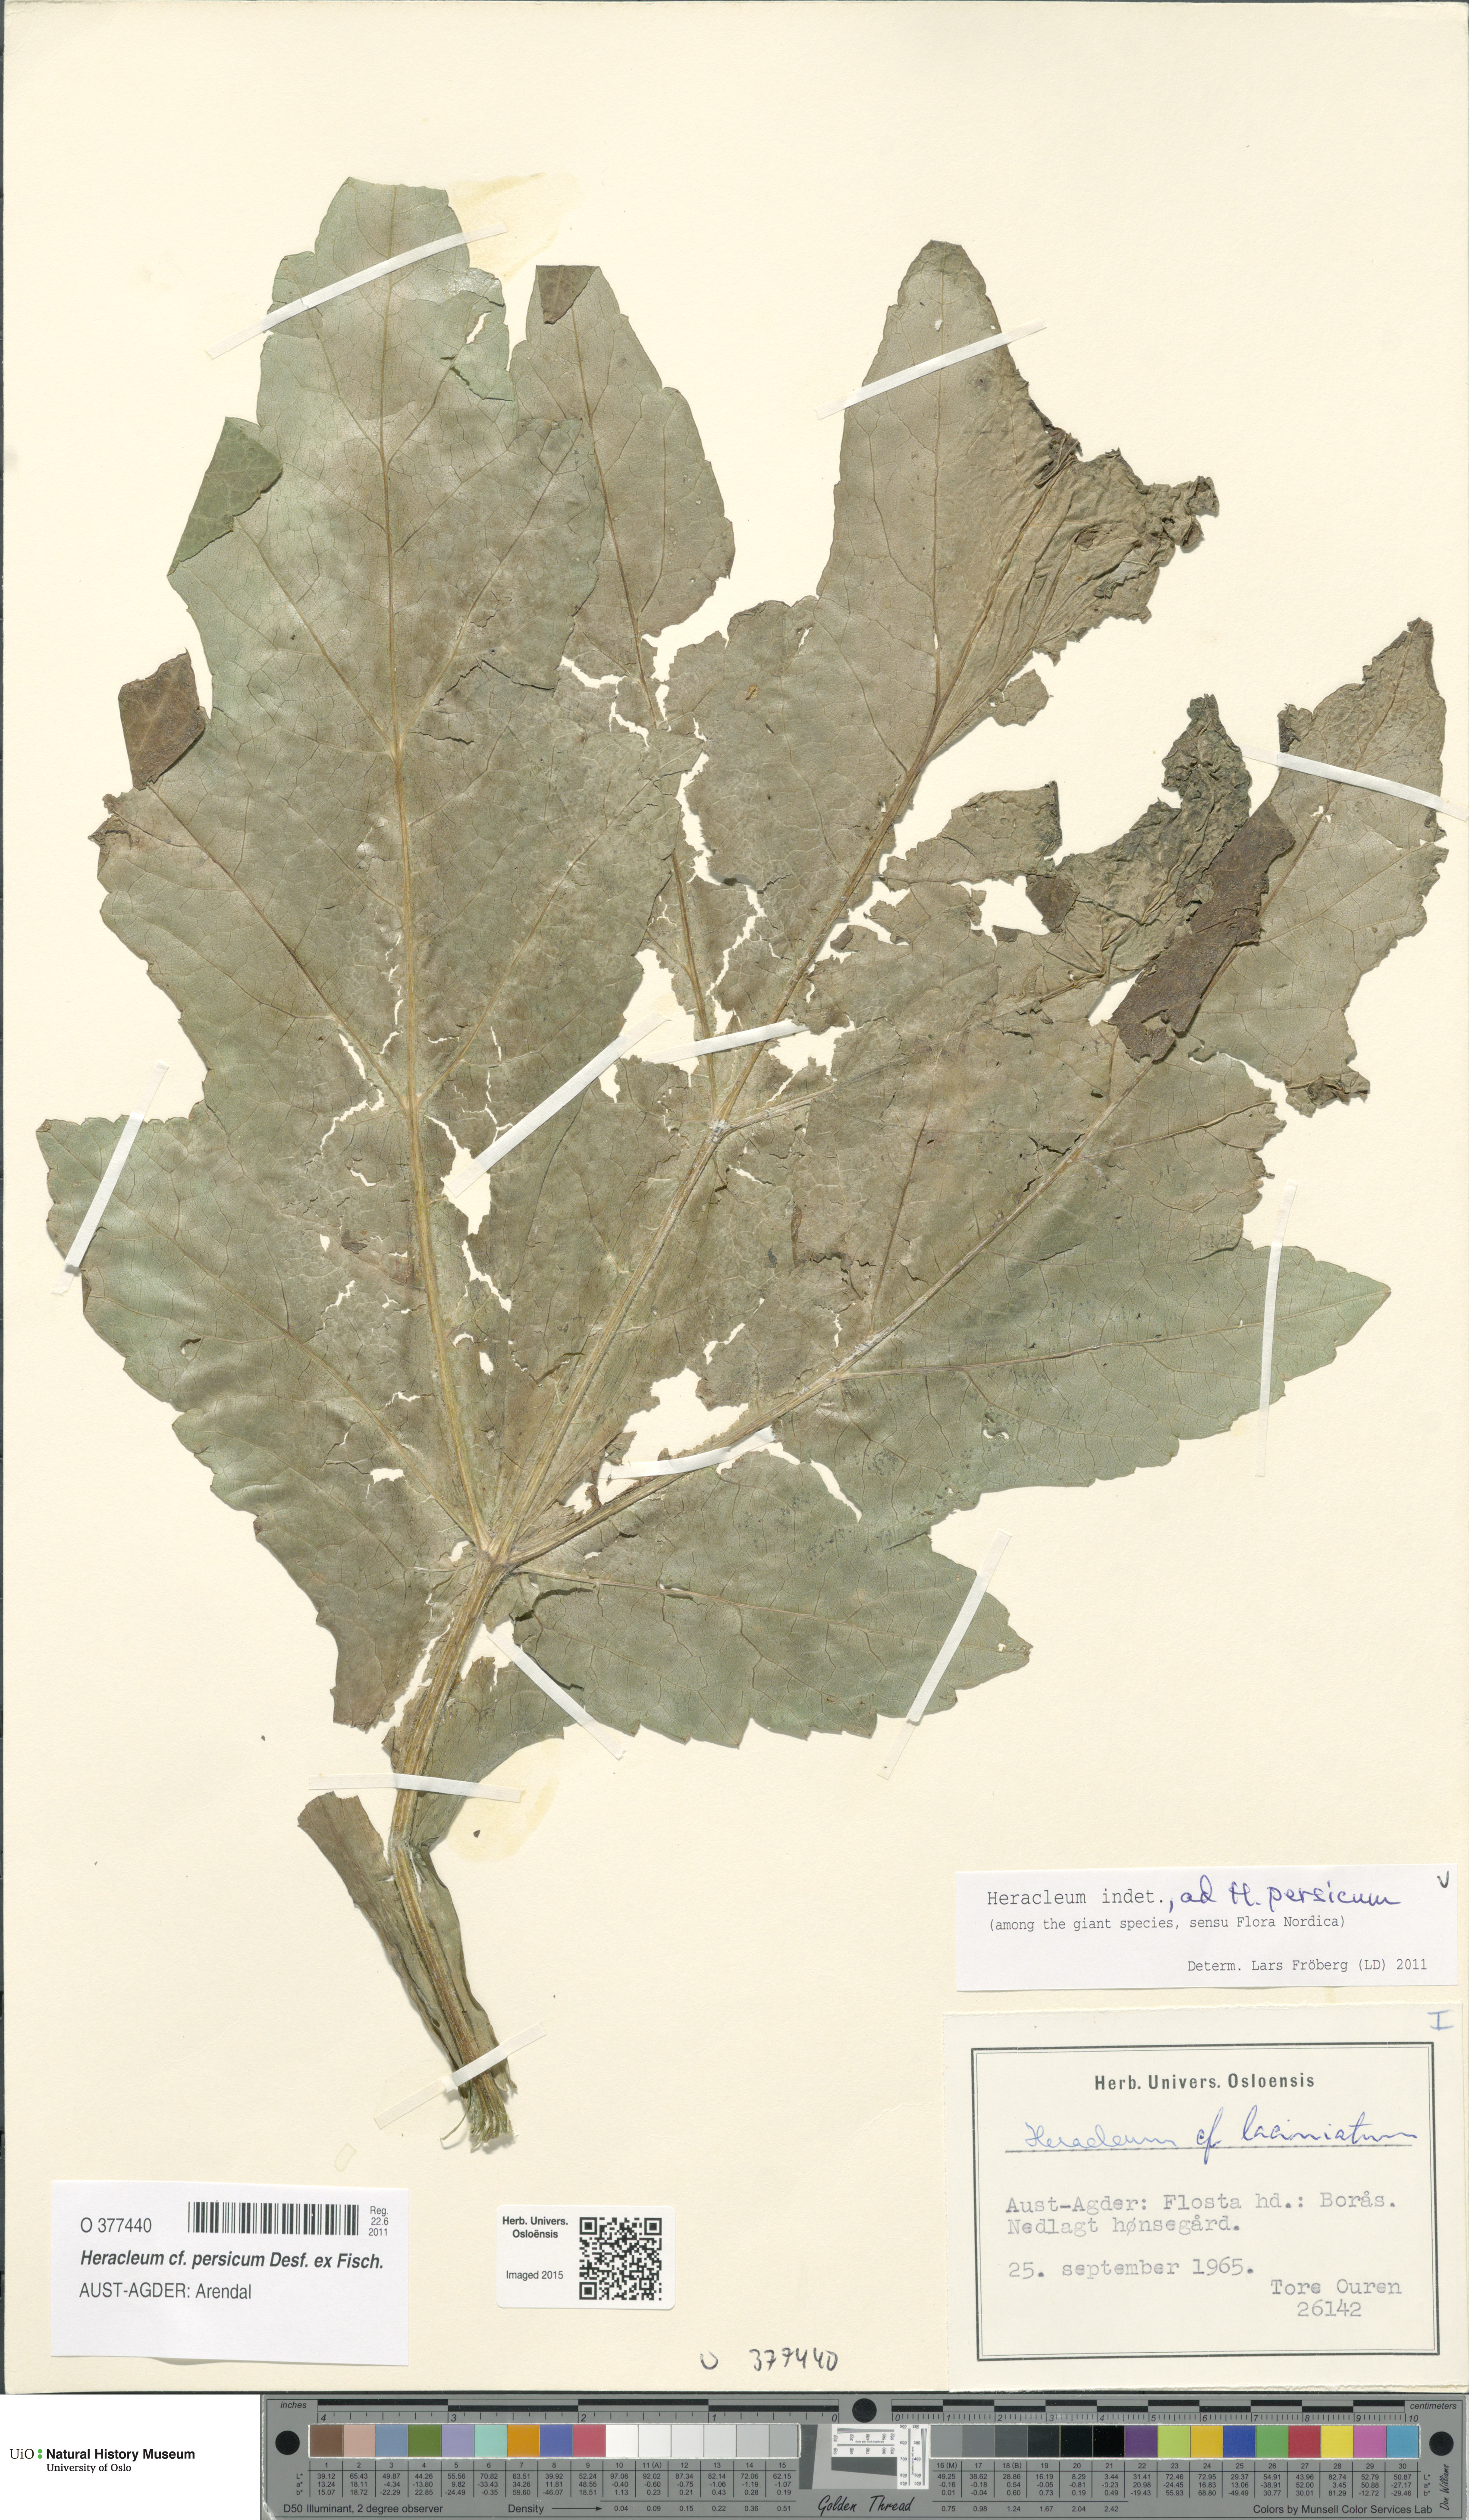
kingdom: Plantae
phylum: Tracheophyta
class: Magnoliopsida
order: Apiales
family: Apiaceae
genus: Heracleum
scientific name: Heracleum persicum
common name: Persian hogweed
